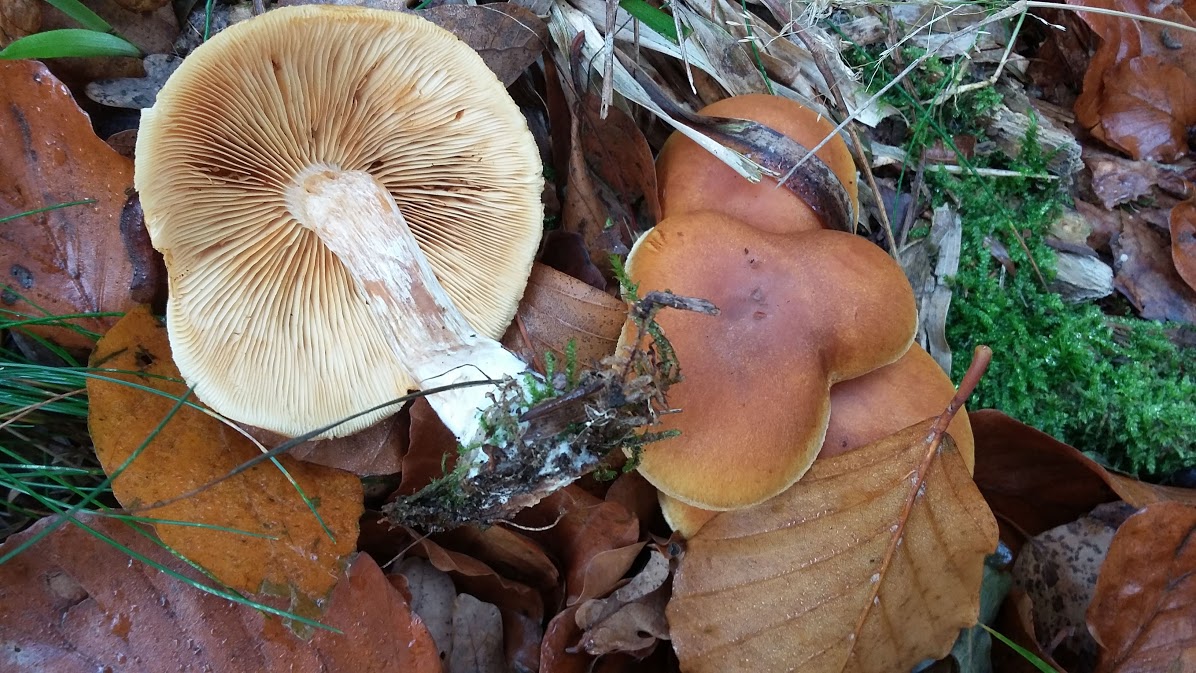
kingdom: Fungi
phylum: Basidiomycota
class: Agaricomycetes
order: Agaricales
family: Hymenogastraceae
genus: Gymnopilus
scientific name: Gymnopilus penetrans
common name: plettet flammehat
